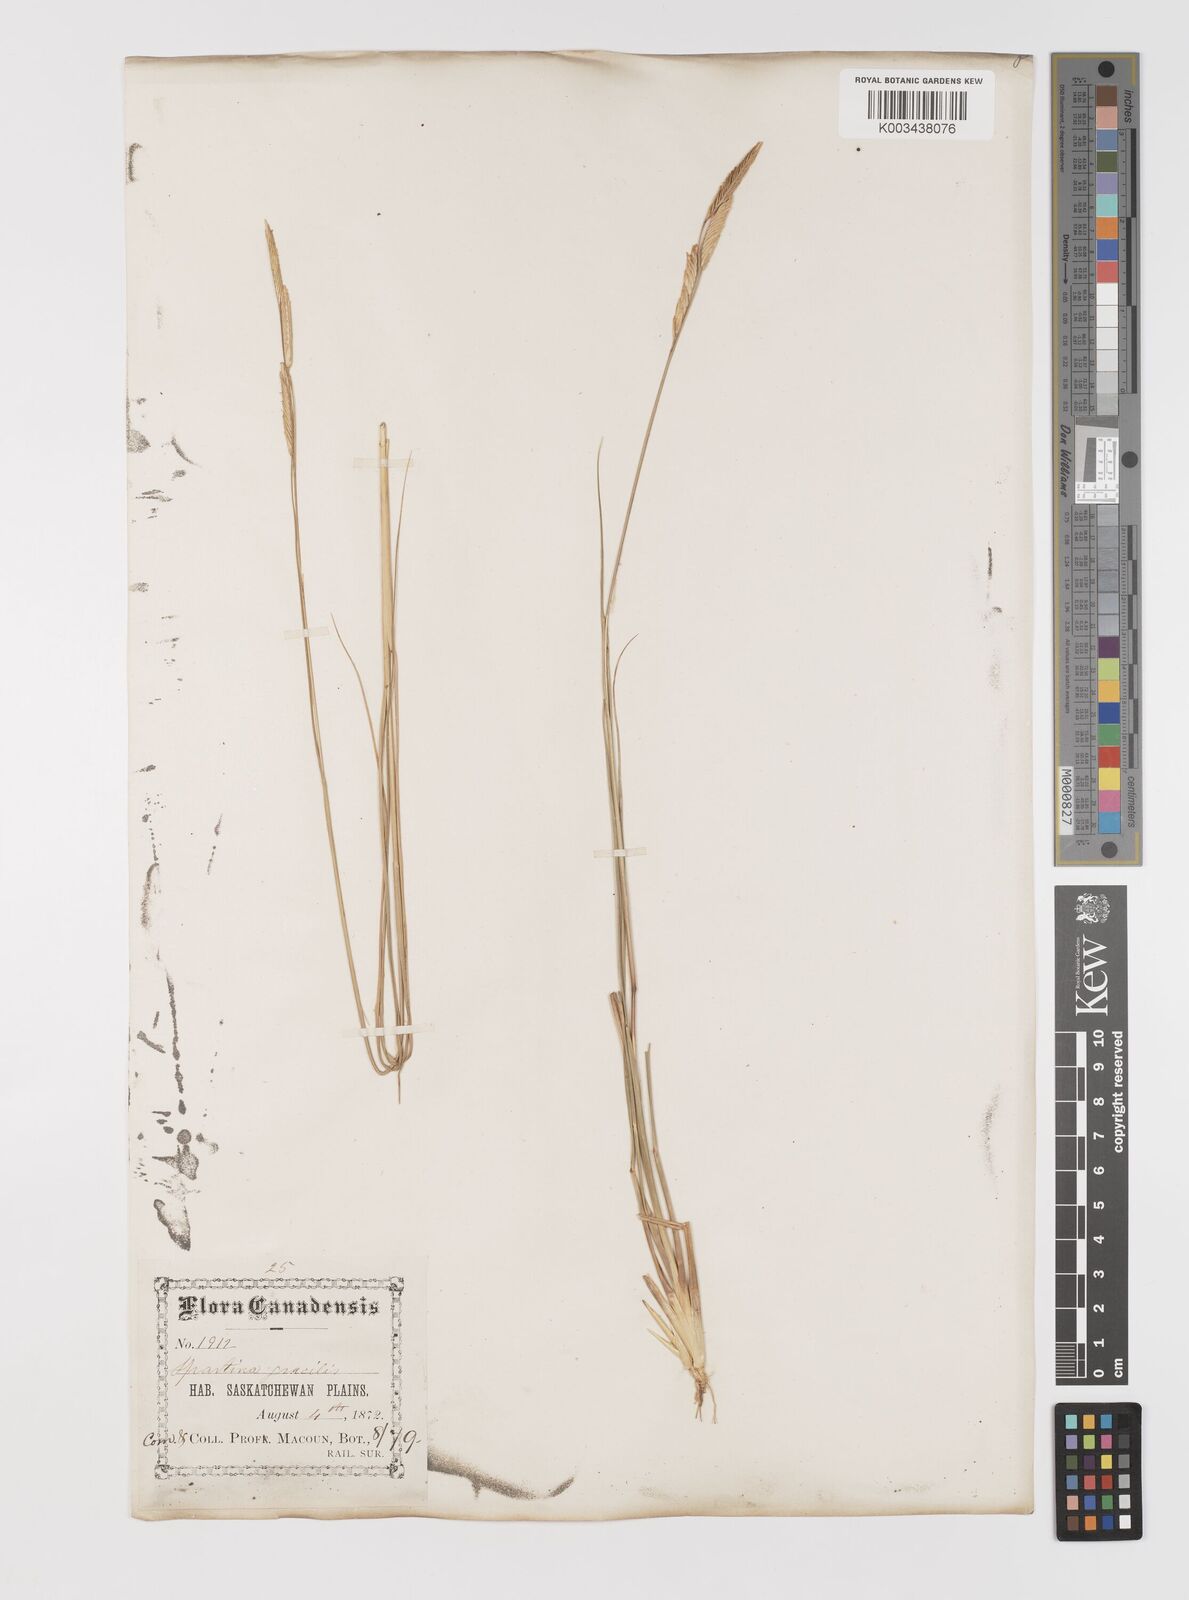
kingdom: Plantae
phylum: Tracheophyta
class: Liliopsida
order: Poales
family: Poaceae
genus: Sporobolus
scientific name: Sporobolus hookerianus
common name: Alkali cordgrass
